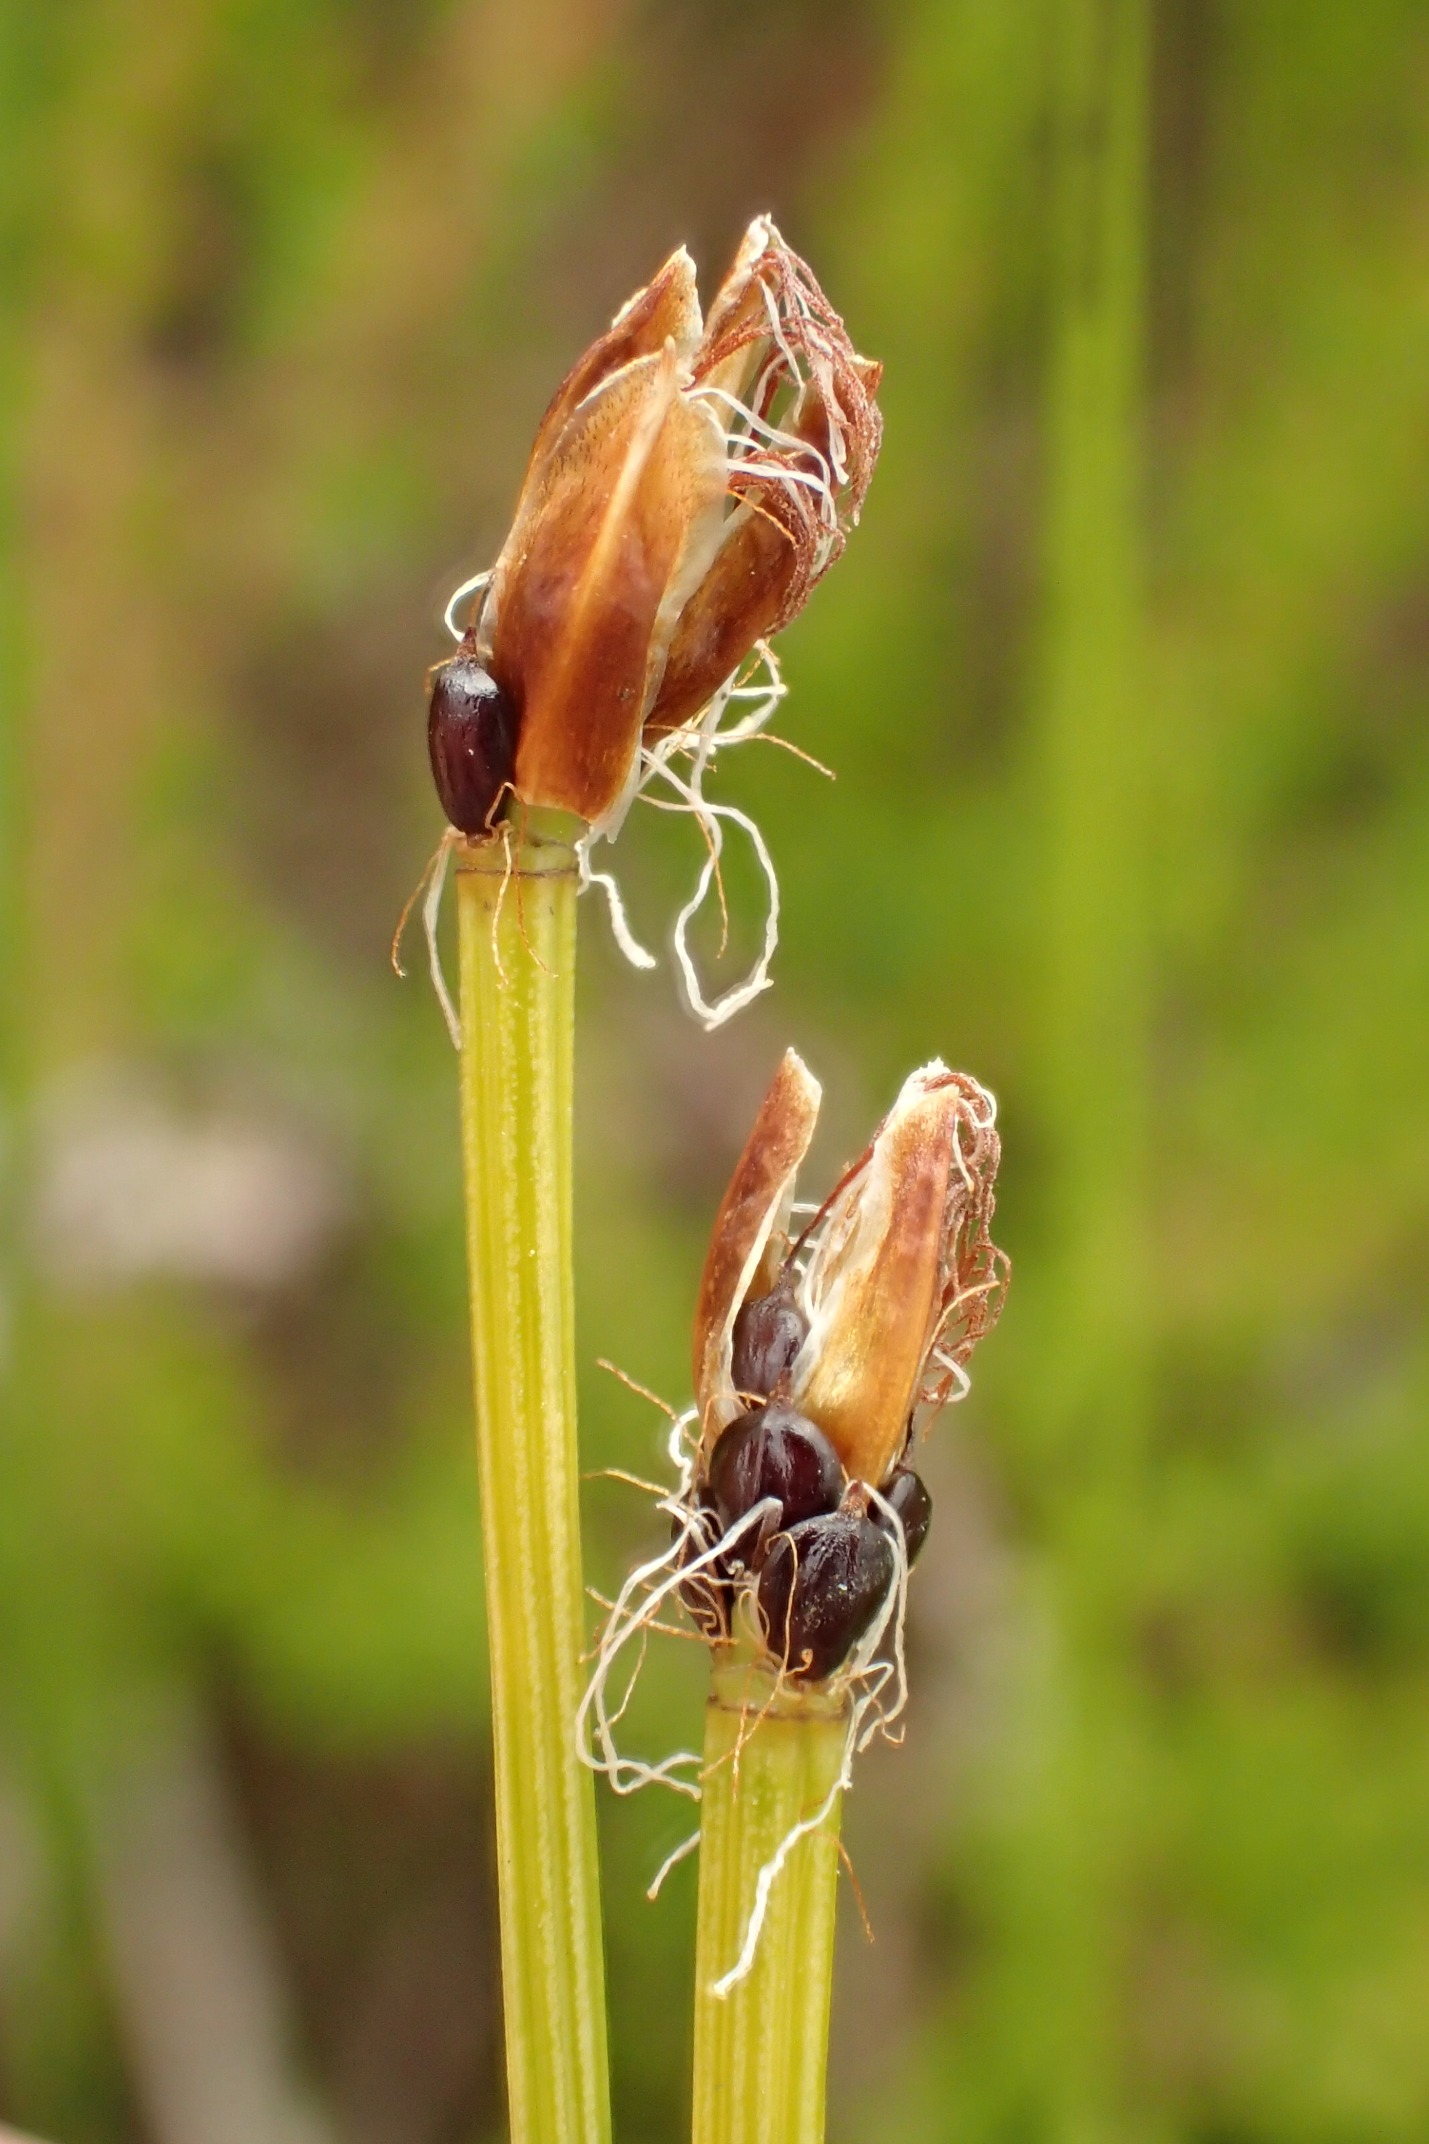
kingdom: Plantae
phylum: Tracheophyta
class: Liliopsida
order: Poales
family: Cyperaceae
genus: Trichophorum
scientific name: Trichophorum cespitosum
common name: Vestlig tuekogleaks
